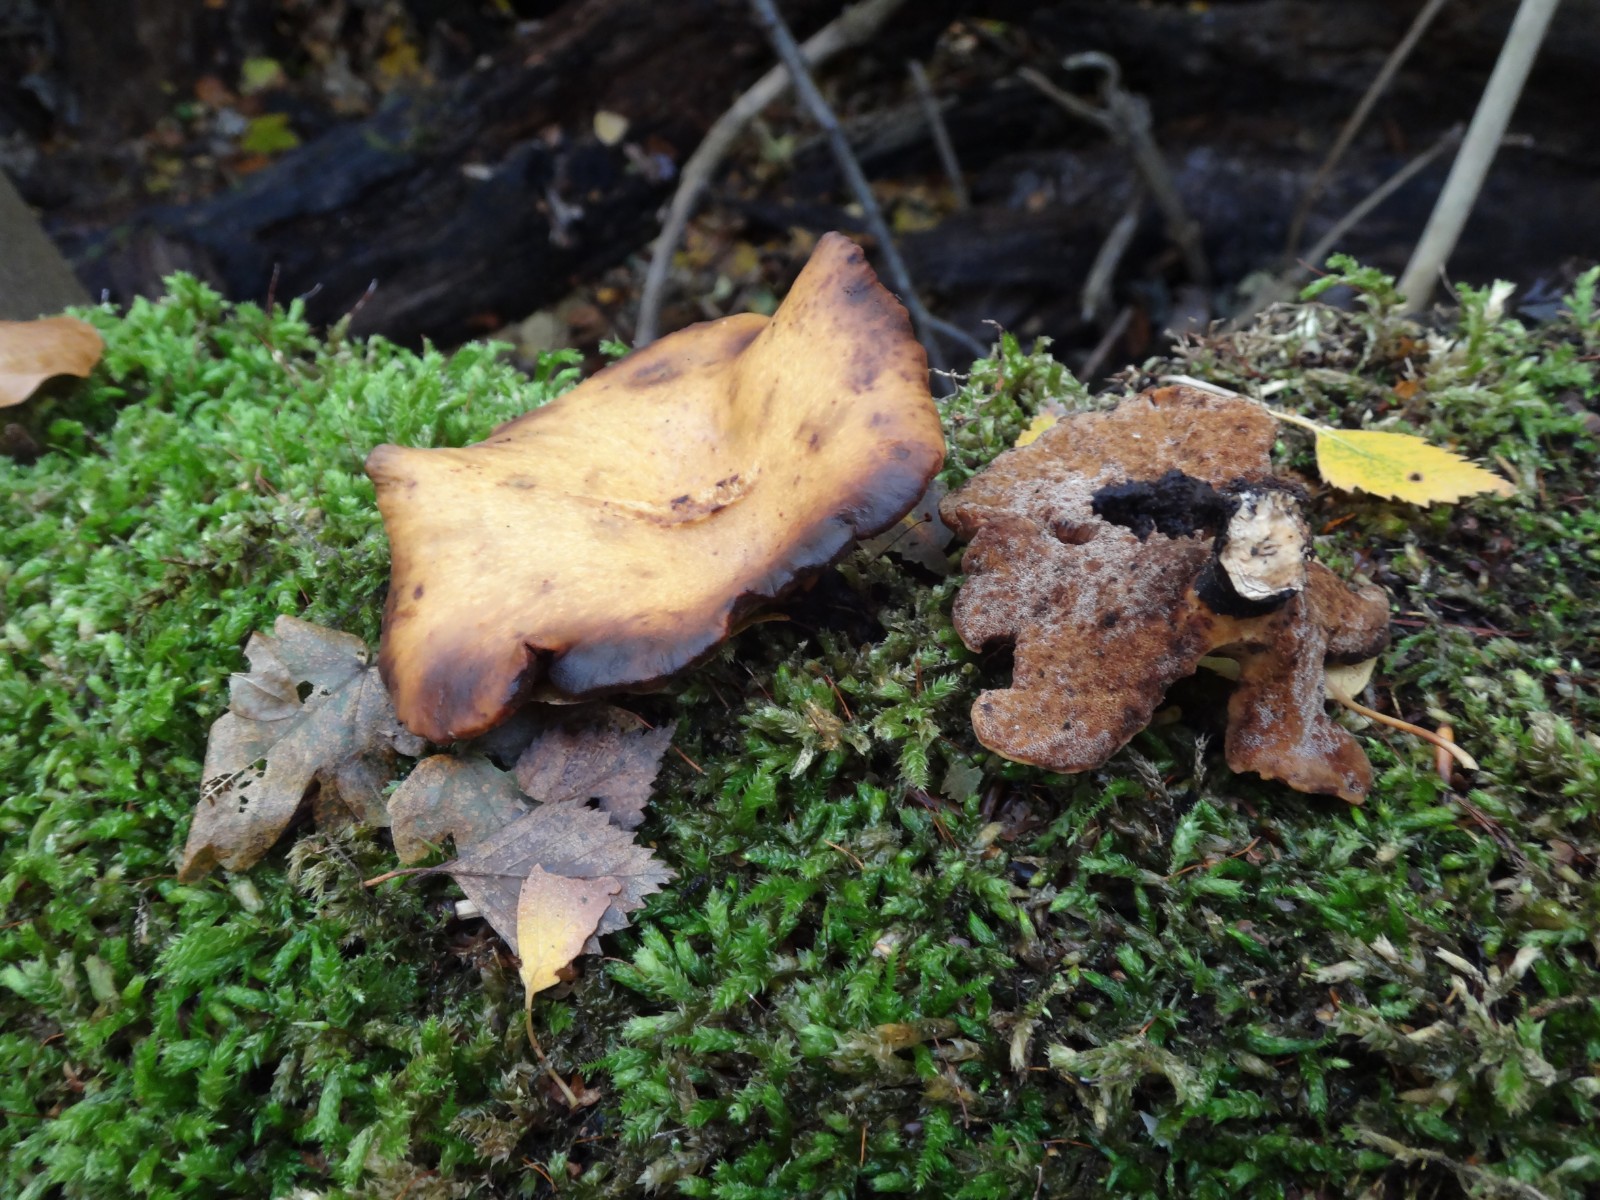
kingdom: Fungi
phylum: Basidiomycota
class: Agaricomycetes
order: Polyporales
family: Polyporaceae
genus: Cerioporus
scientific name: Cerioporus varius
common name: foranderlig stilkporesvamp
